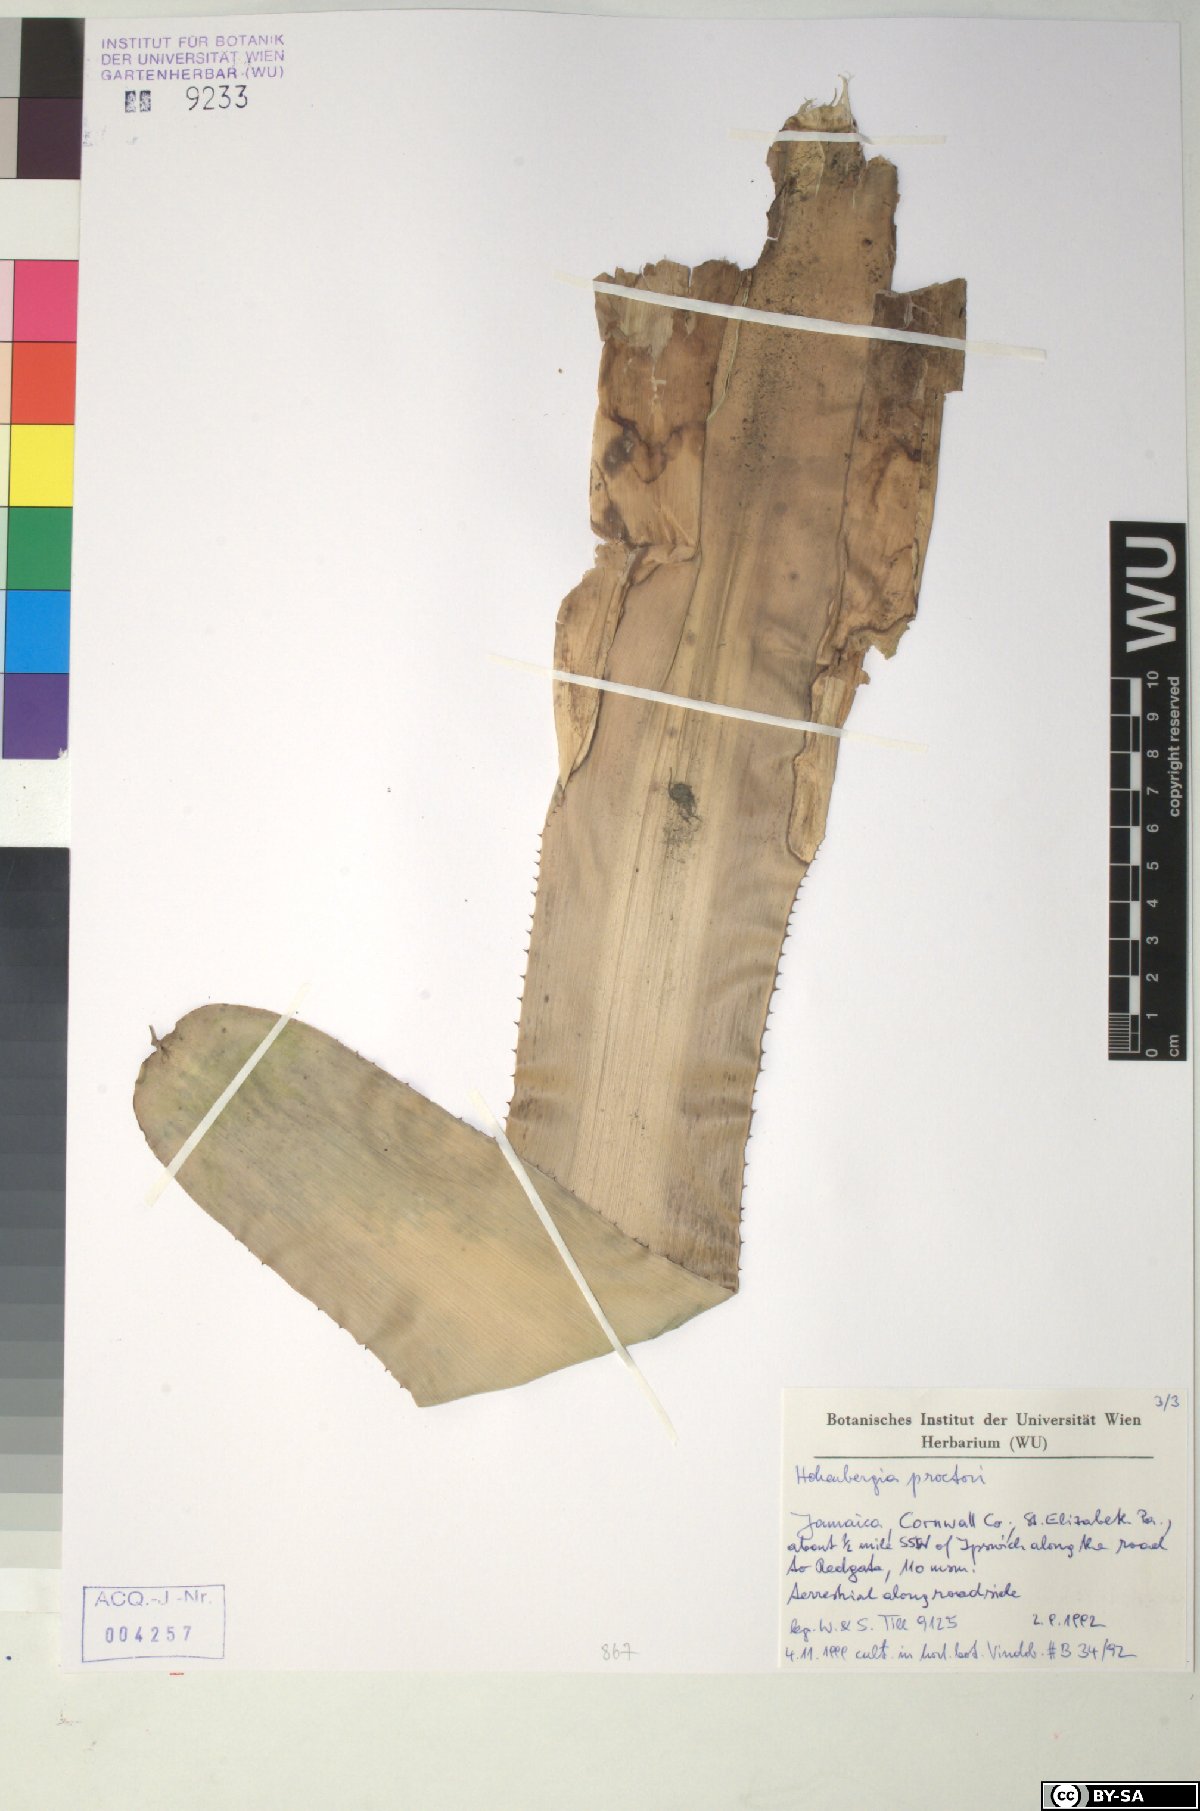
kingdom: Plantae
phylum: Tracheophyta
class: Liliopsida
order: Poales
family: Bromeliaceae
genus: Wittmackia
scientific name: Wittmackia urbaniana
